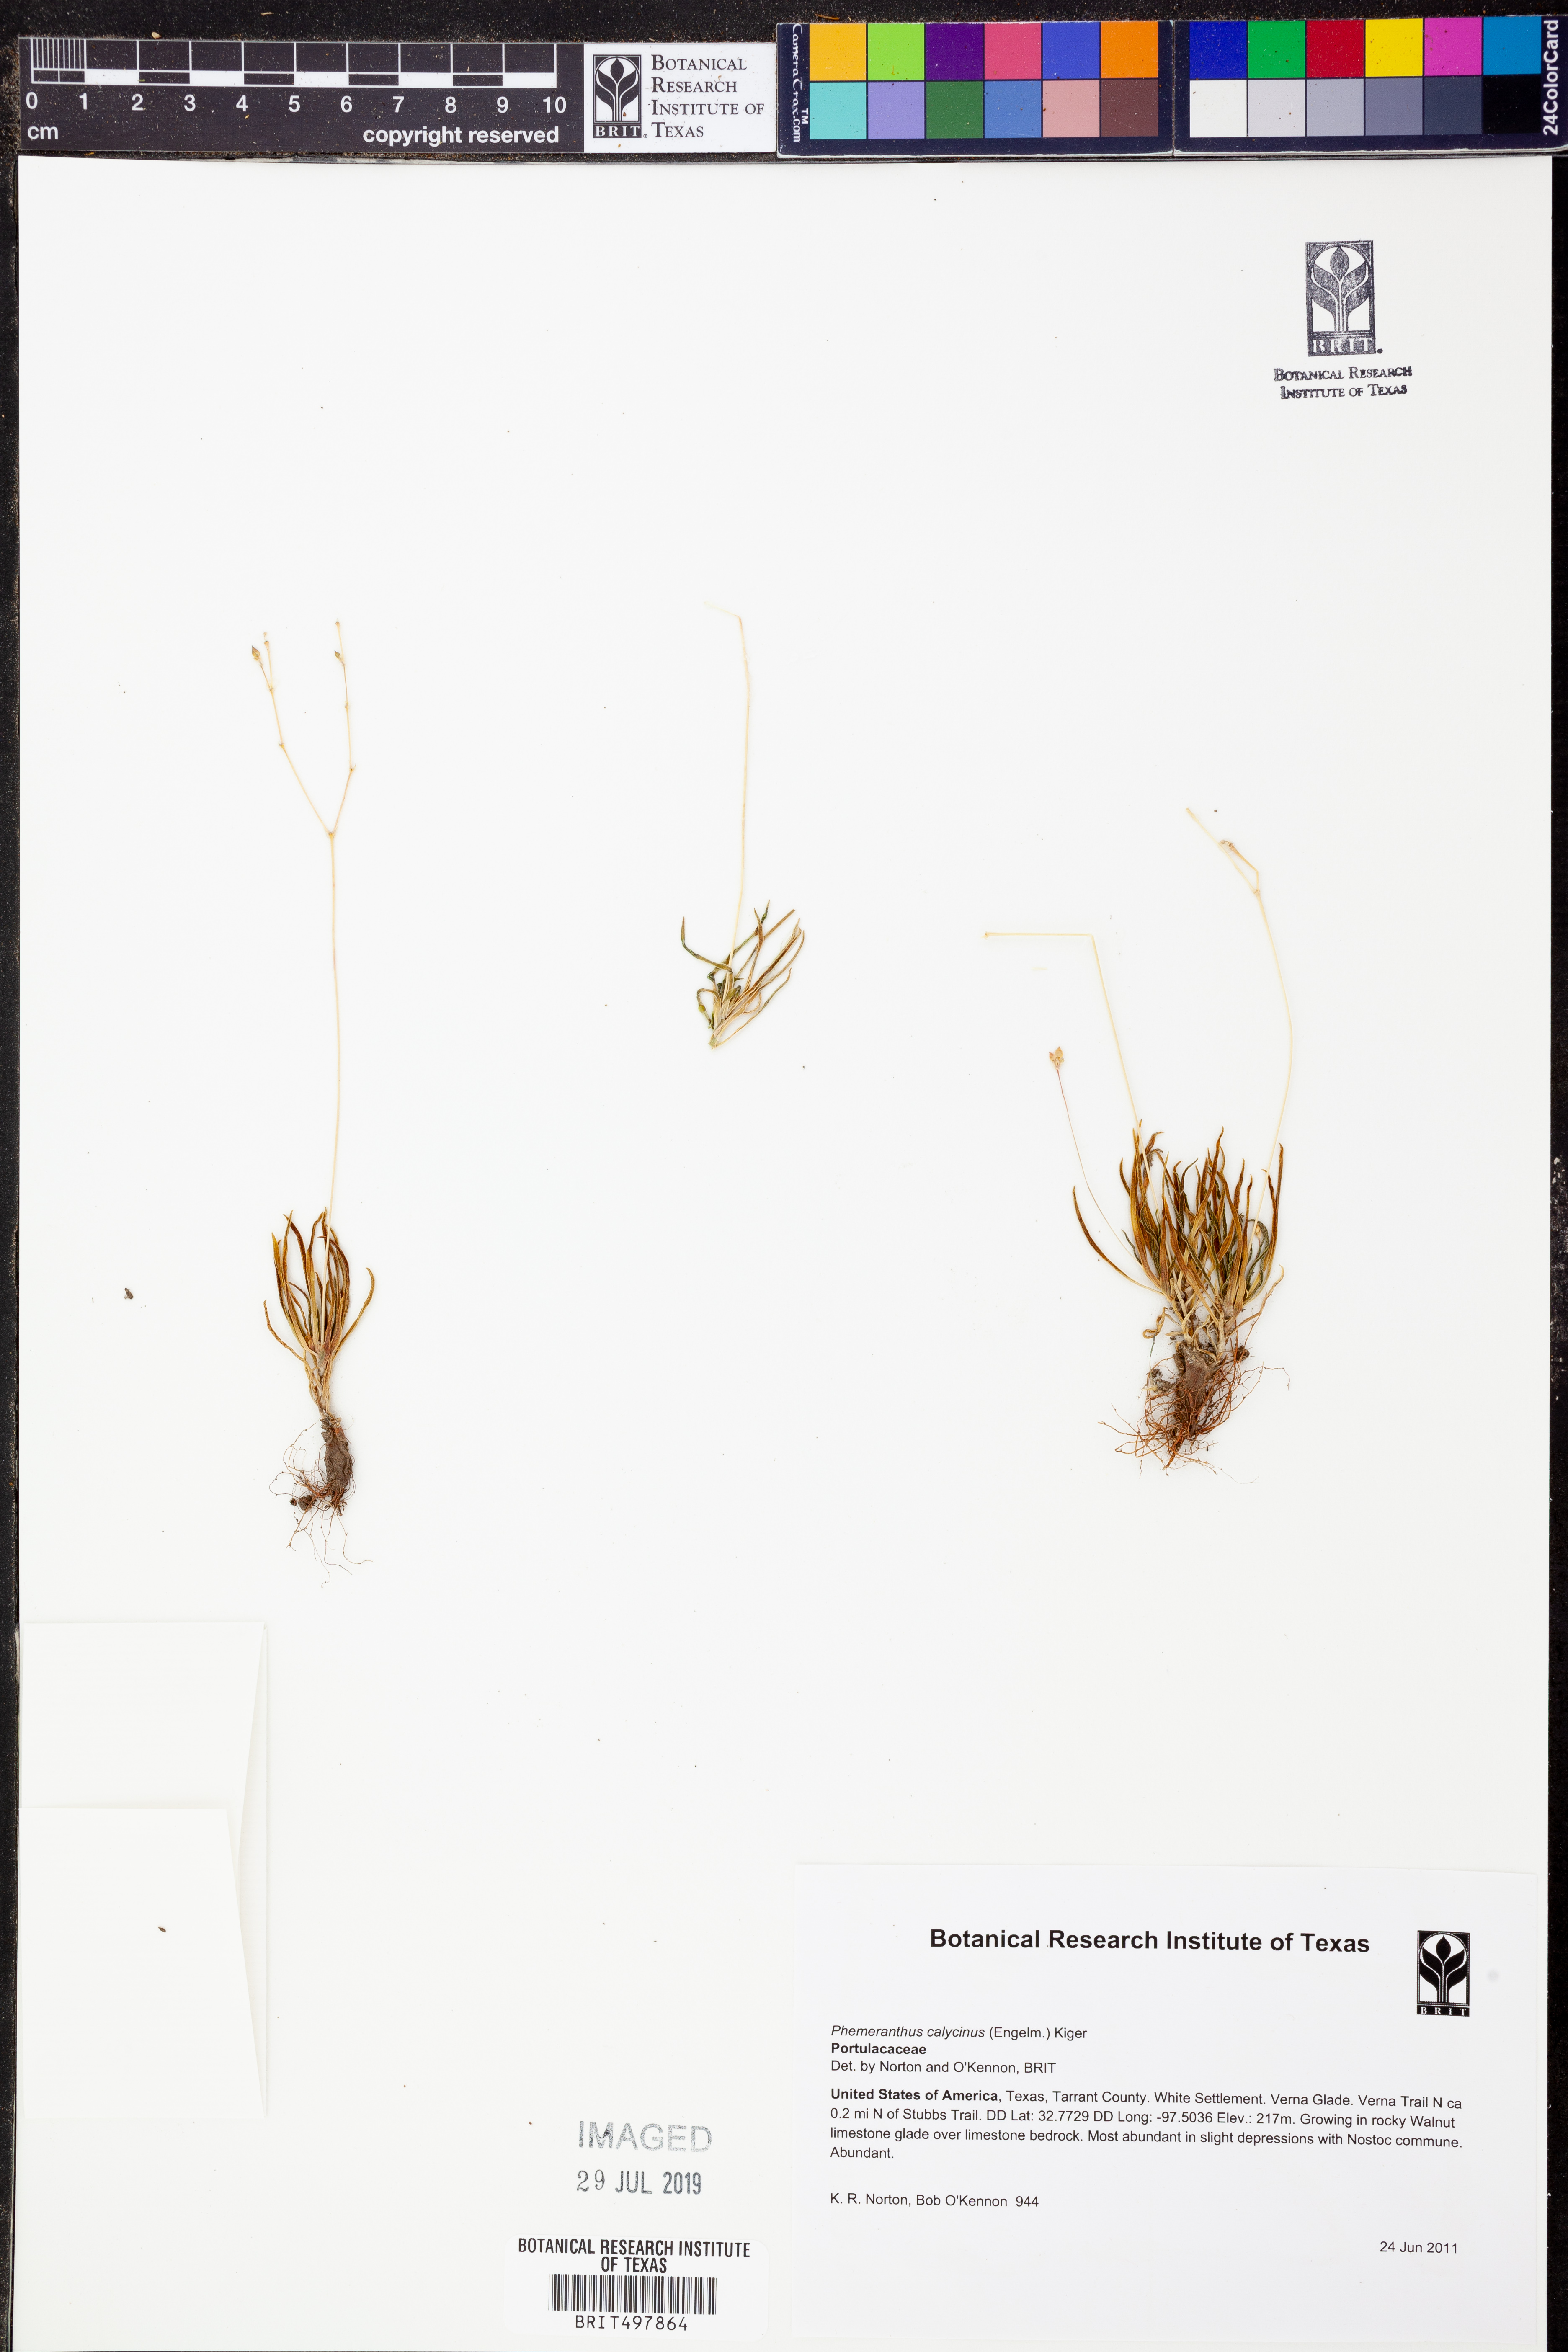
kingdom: Plantae
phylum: Tracheophyta
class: Magnoliopsida
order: Caryophyllales
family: Montiaceae
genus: Phemeranthus
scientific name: Phemeranthus calycinus
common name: Largeflower fameflower
